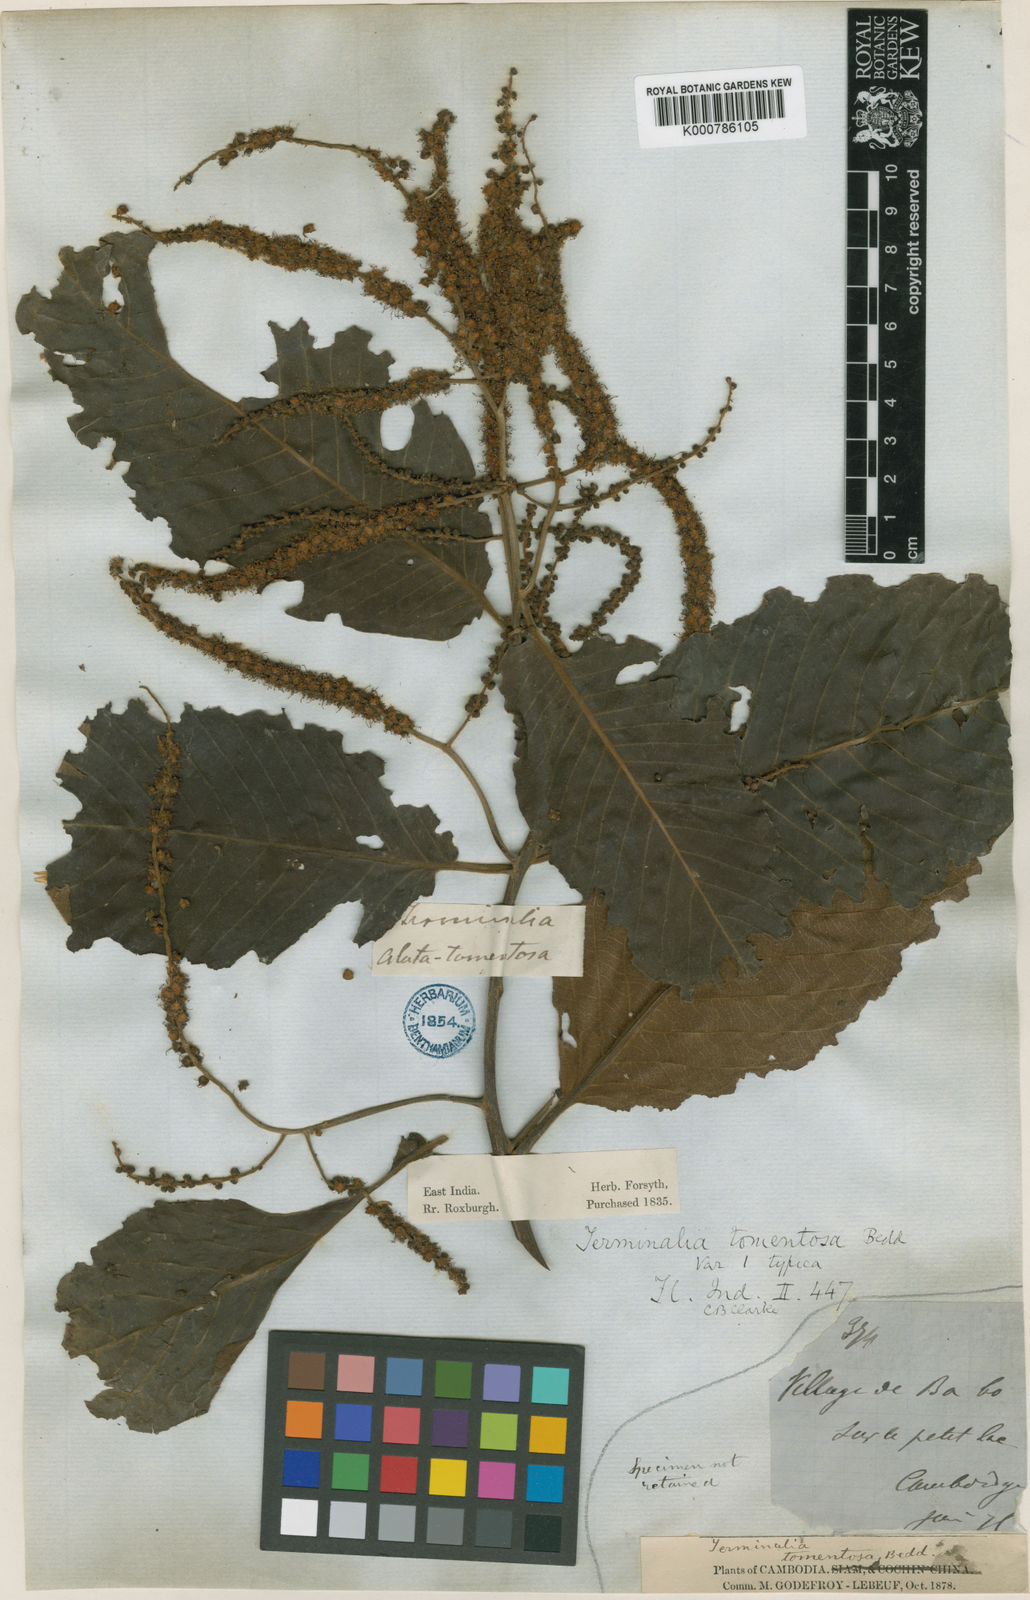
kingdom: Plantae
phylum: Tracheophyta
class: Magnoliopsida
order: Myrtales
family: Combretaceae
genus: Terminalia
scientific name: Terminalia
